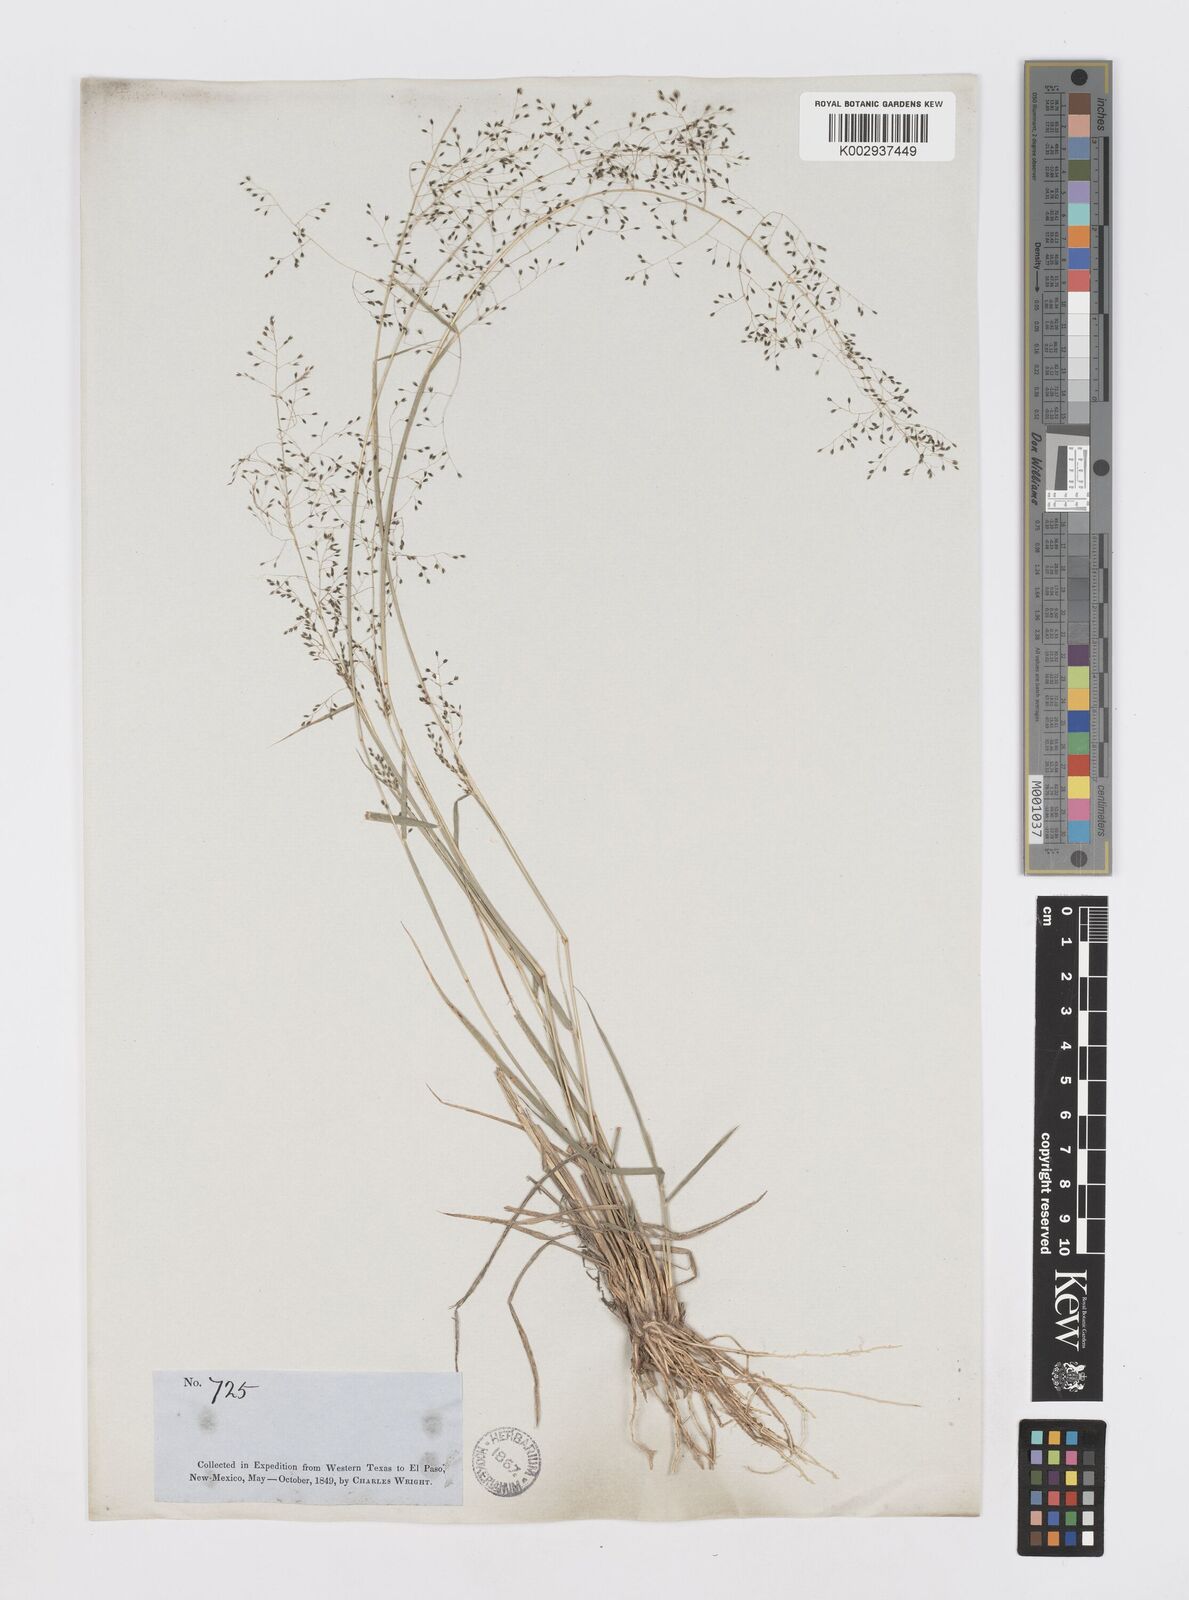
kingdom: Plantae
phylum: Tracheophyta
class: Liliopsida
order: Poales
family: Poaceae
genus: Sporobolus
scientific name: Sporobolus flexuosus
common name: Mesa dropseed
